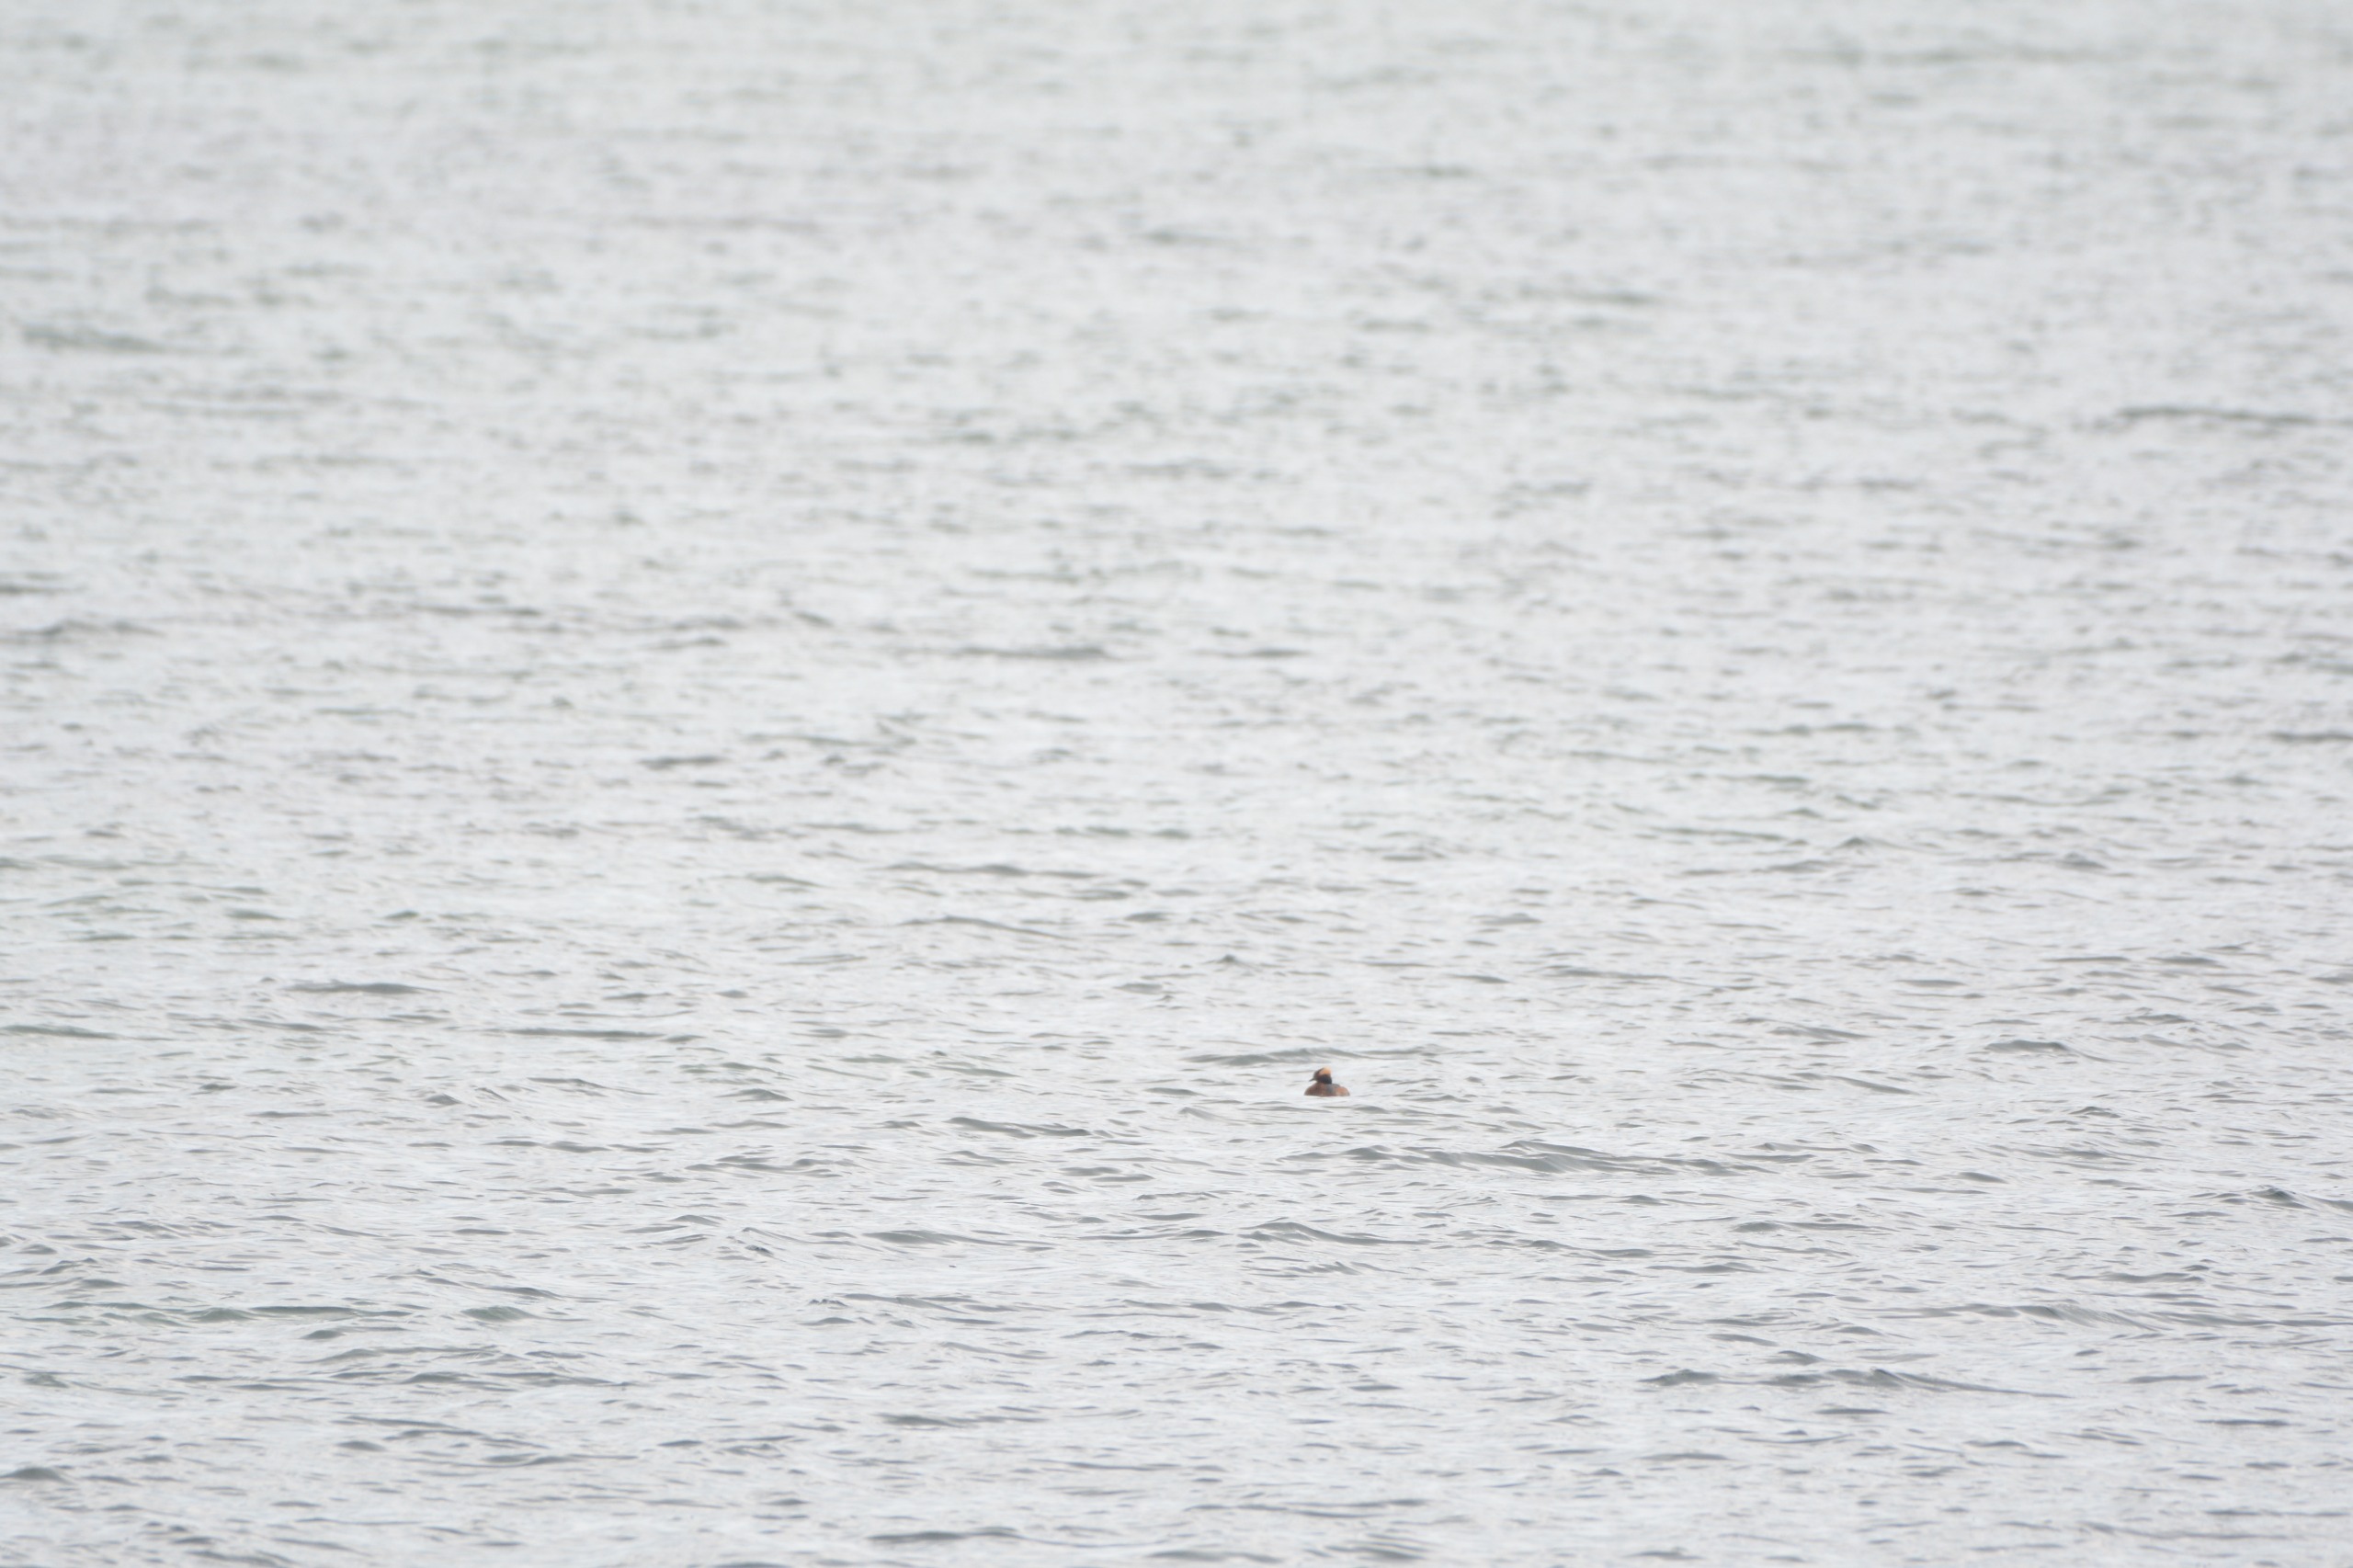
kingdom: Animalia
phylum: Chordata
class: Aves
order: Podicipediformes
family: Podicipedidae
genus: Podiceps
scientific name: Podiceps auritus
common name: Nordisk lappedykker
